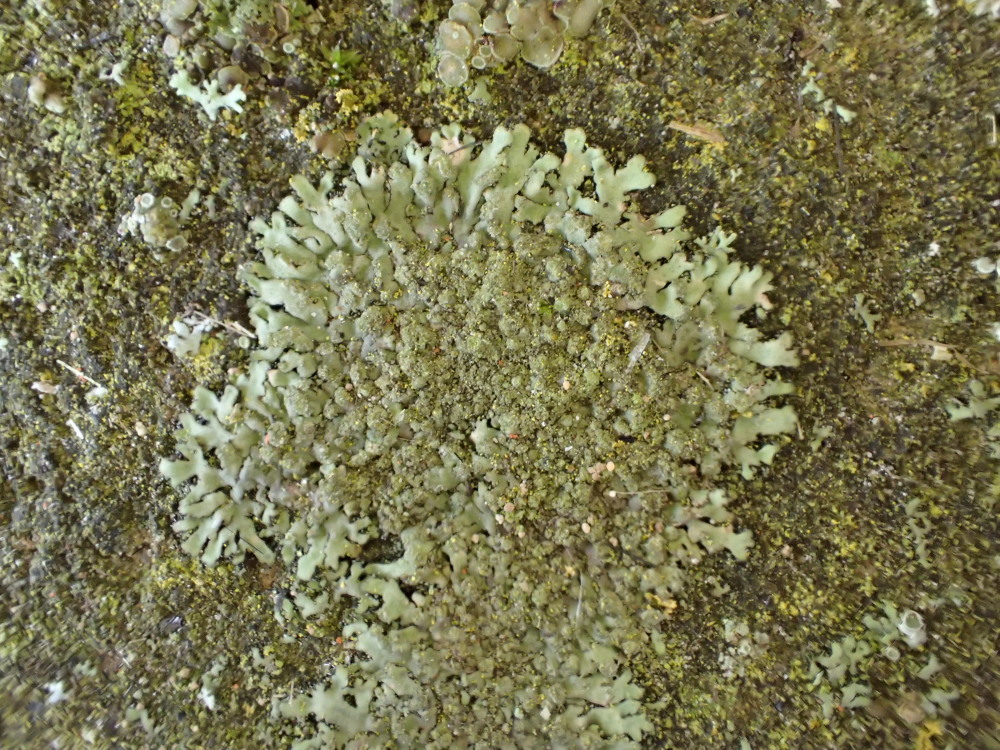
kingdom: Fungi
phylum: Ascomycota
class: Lecanoromycetes
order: Caliciales
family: Physciaceae
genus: Phaeophyscia
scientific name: Phaeophyscia orbicularis
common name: grågrøn rosetlav
